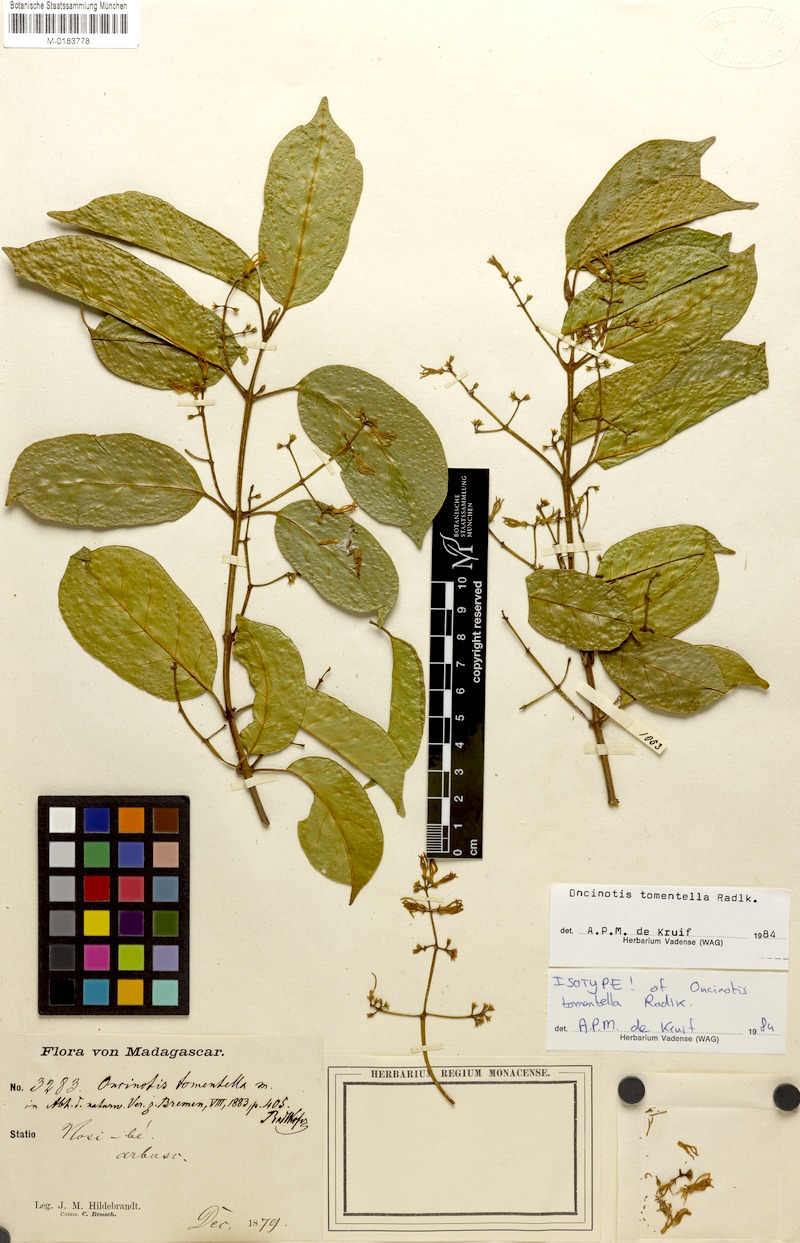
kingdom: Plantae
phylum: Tracheophyta
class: Magnoliopsida
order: Gentianales
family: Apocynaceae
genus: Oncinotis
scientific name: Oncinotis tomentella
